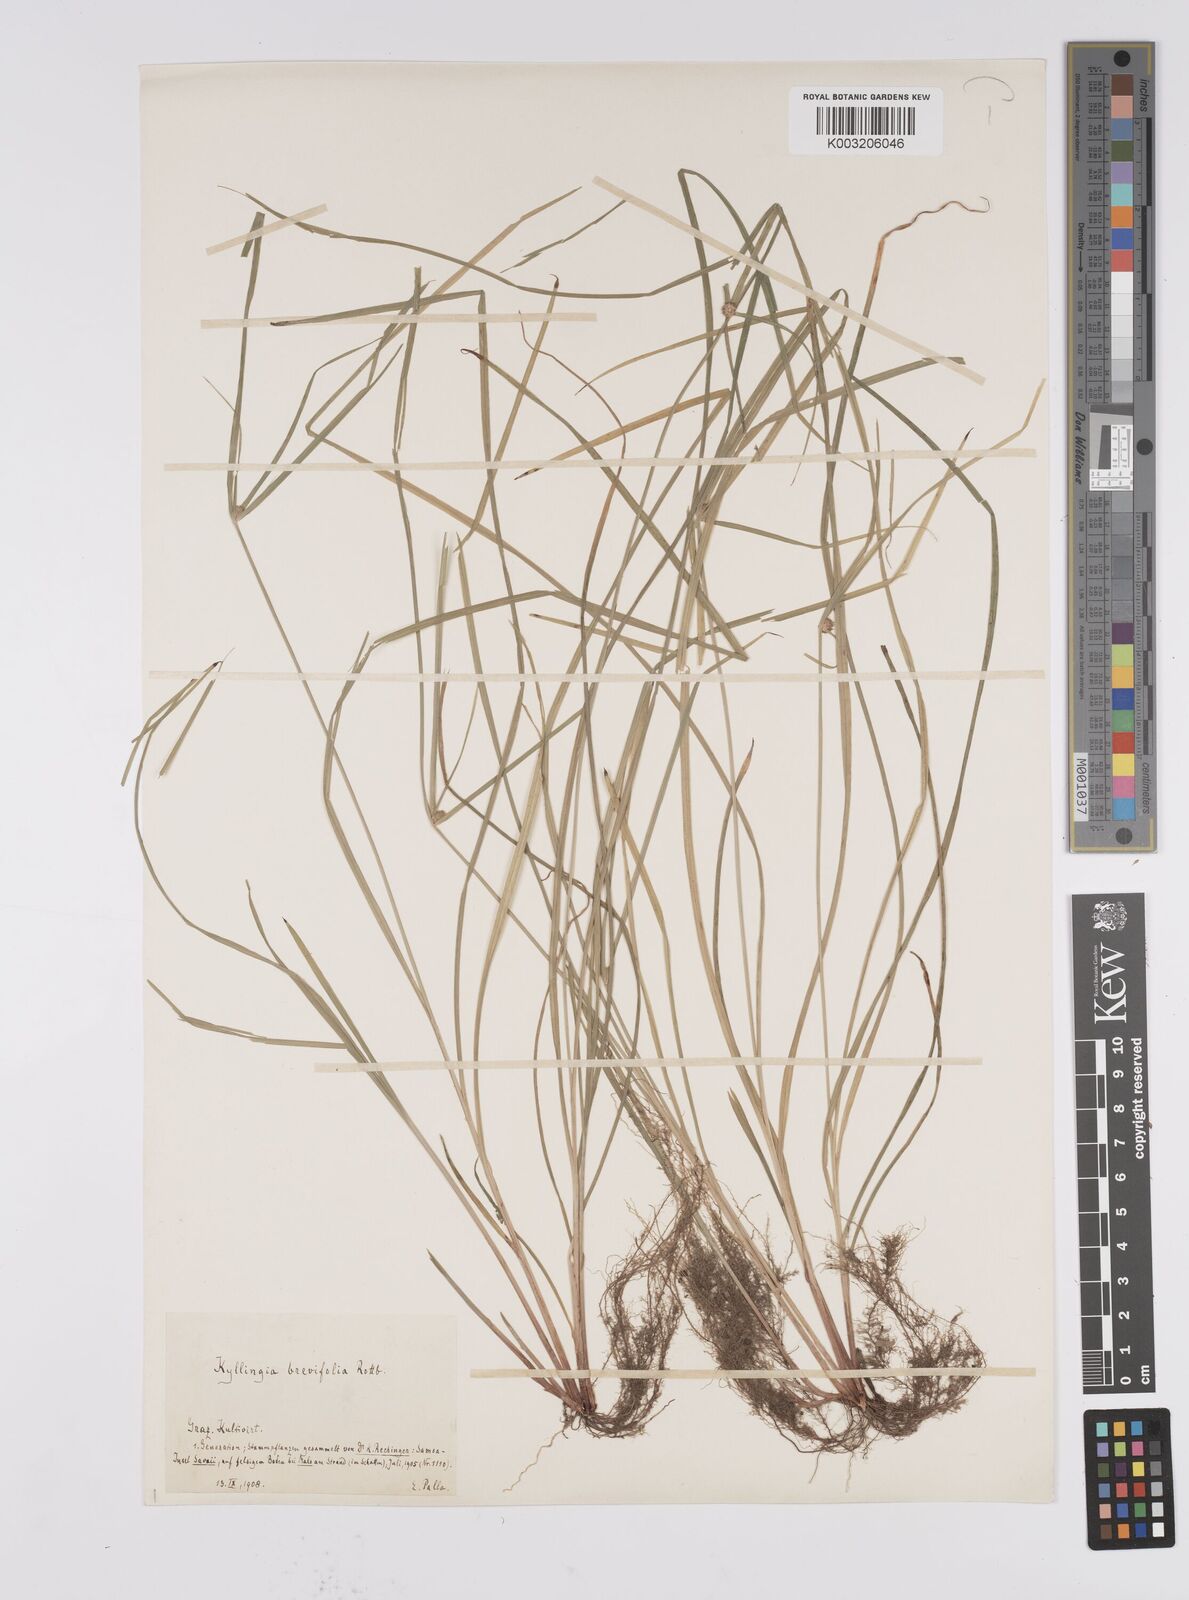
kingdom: Plantae
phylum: Tracheophyta
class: Liliopsida
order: Poales
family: Cyperaceae
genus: Cyperus
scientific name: Cyperus brevifolius
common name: Globe kyllinga
